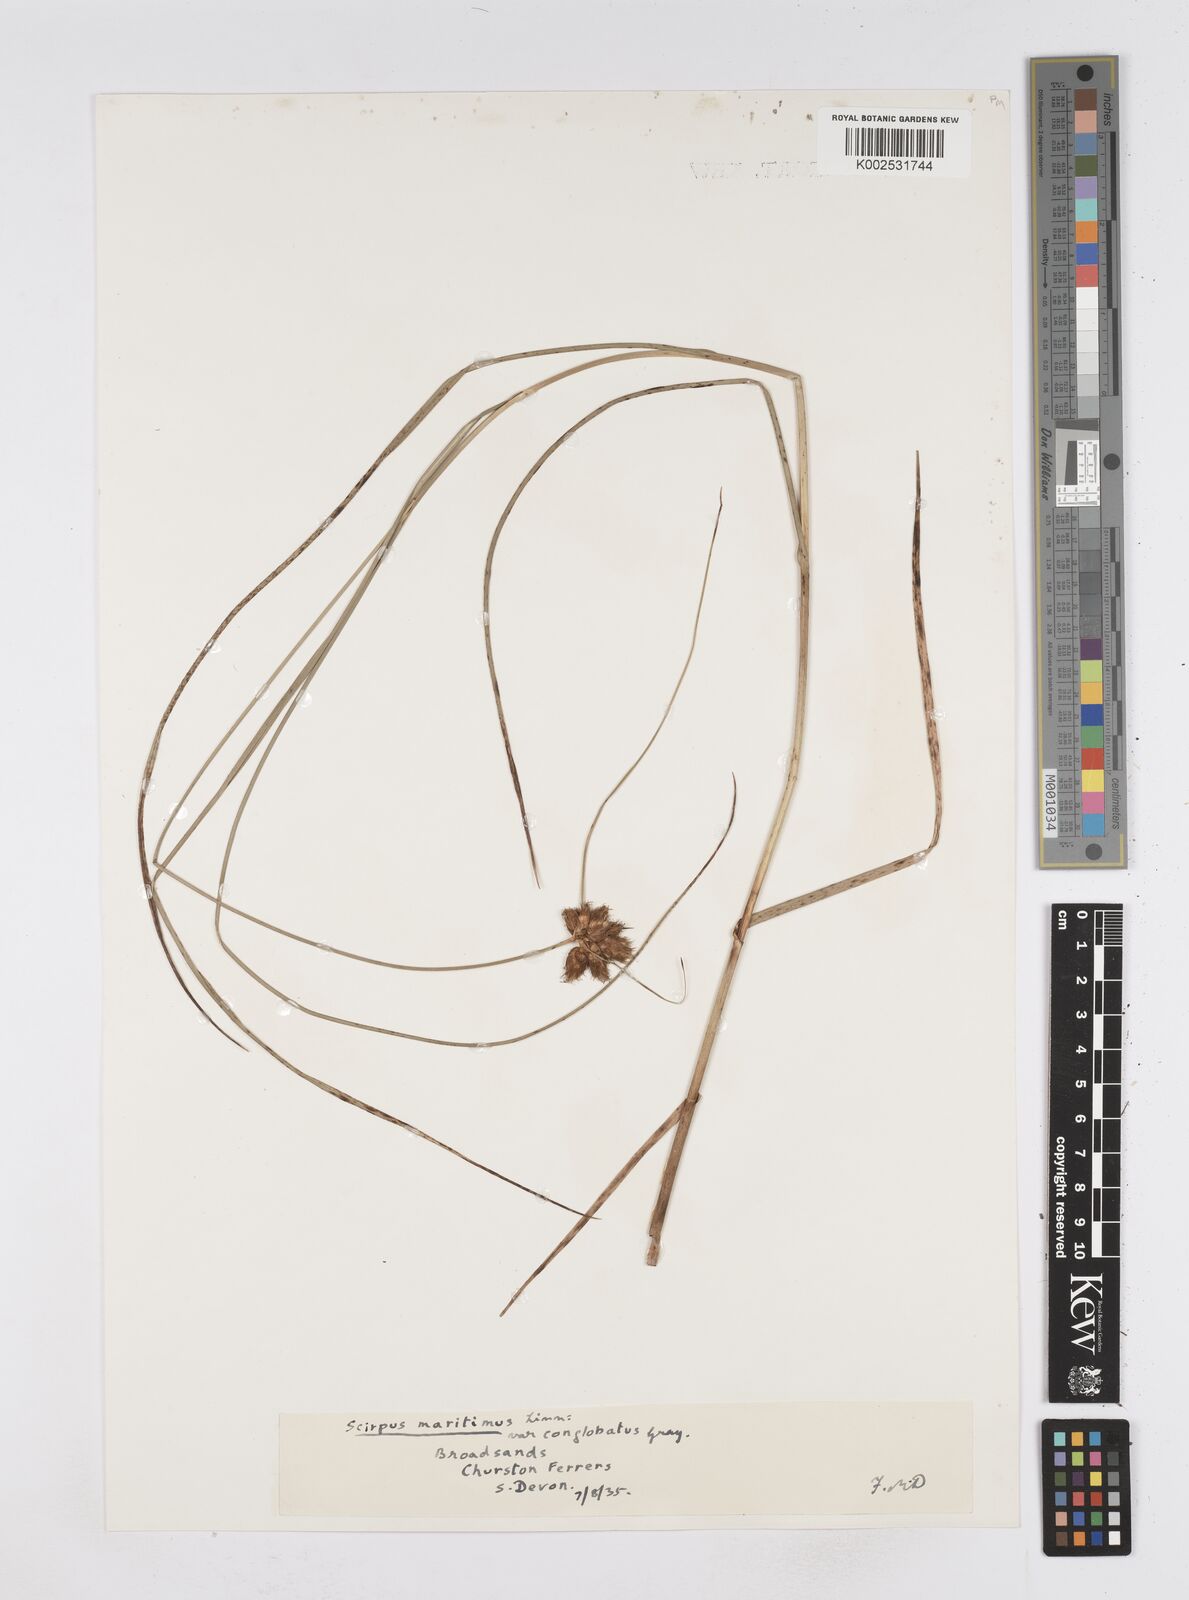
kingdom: Plantae
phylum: Tracheophyta
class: Liliopsida
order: Poales
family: Cyperaceae
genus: Bolboschoenus
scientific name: Bolboschoenus maritimus
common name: Sea club-rush
